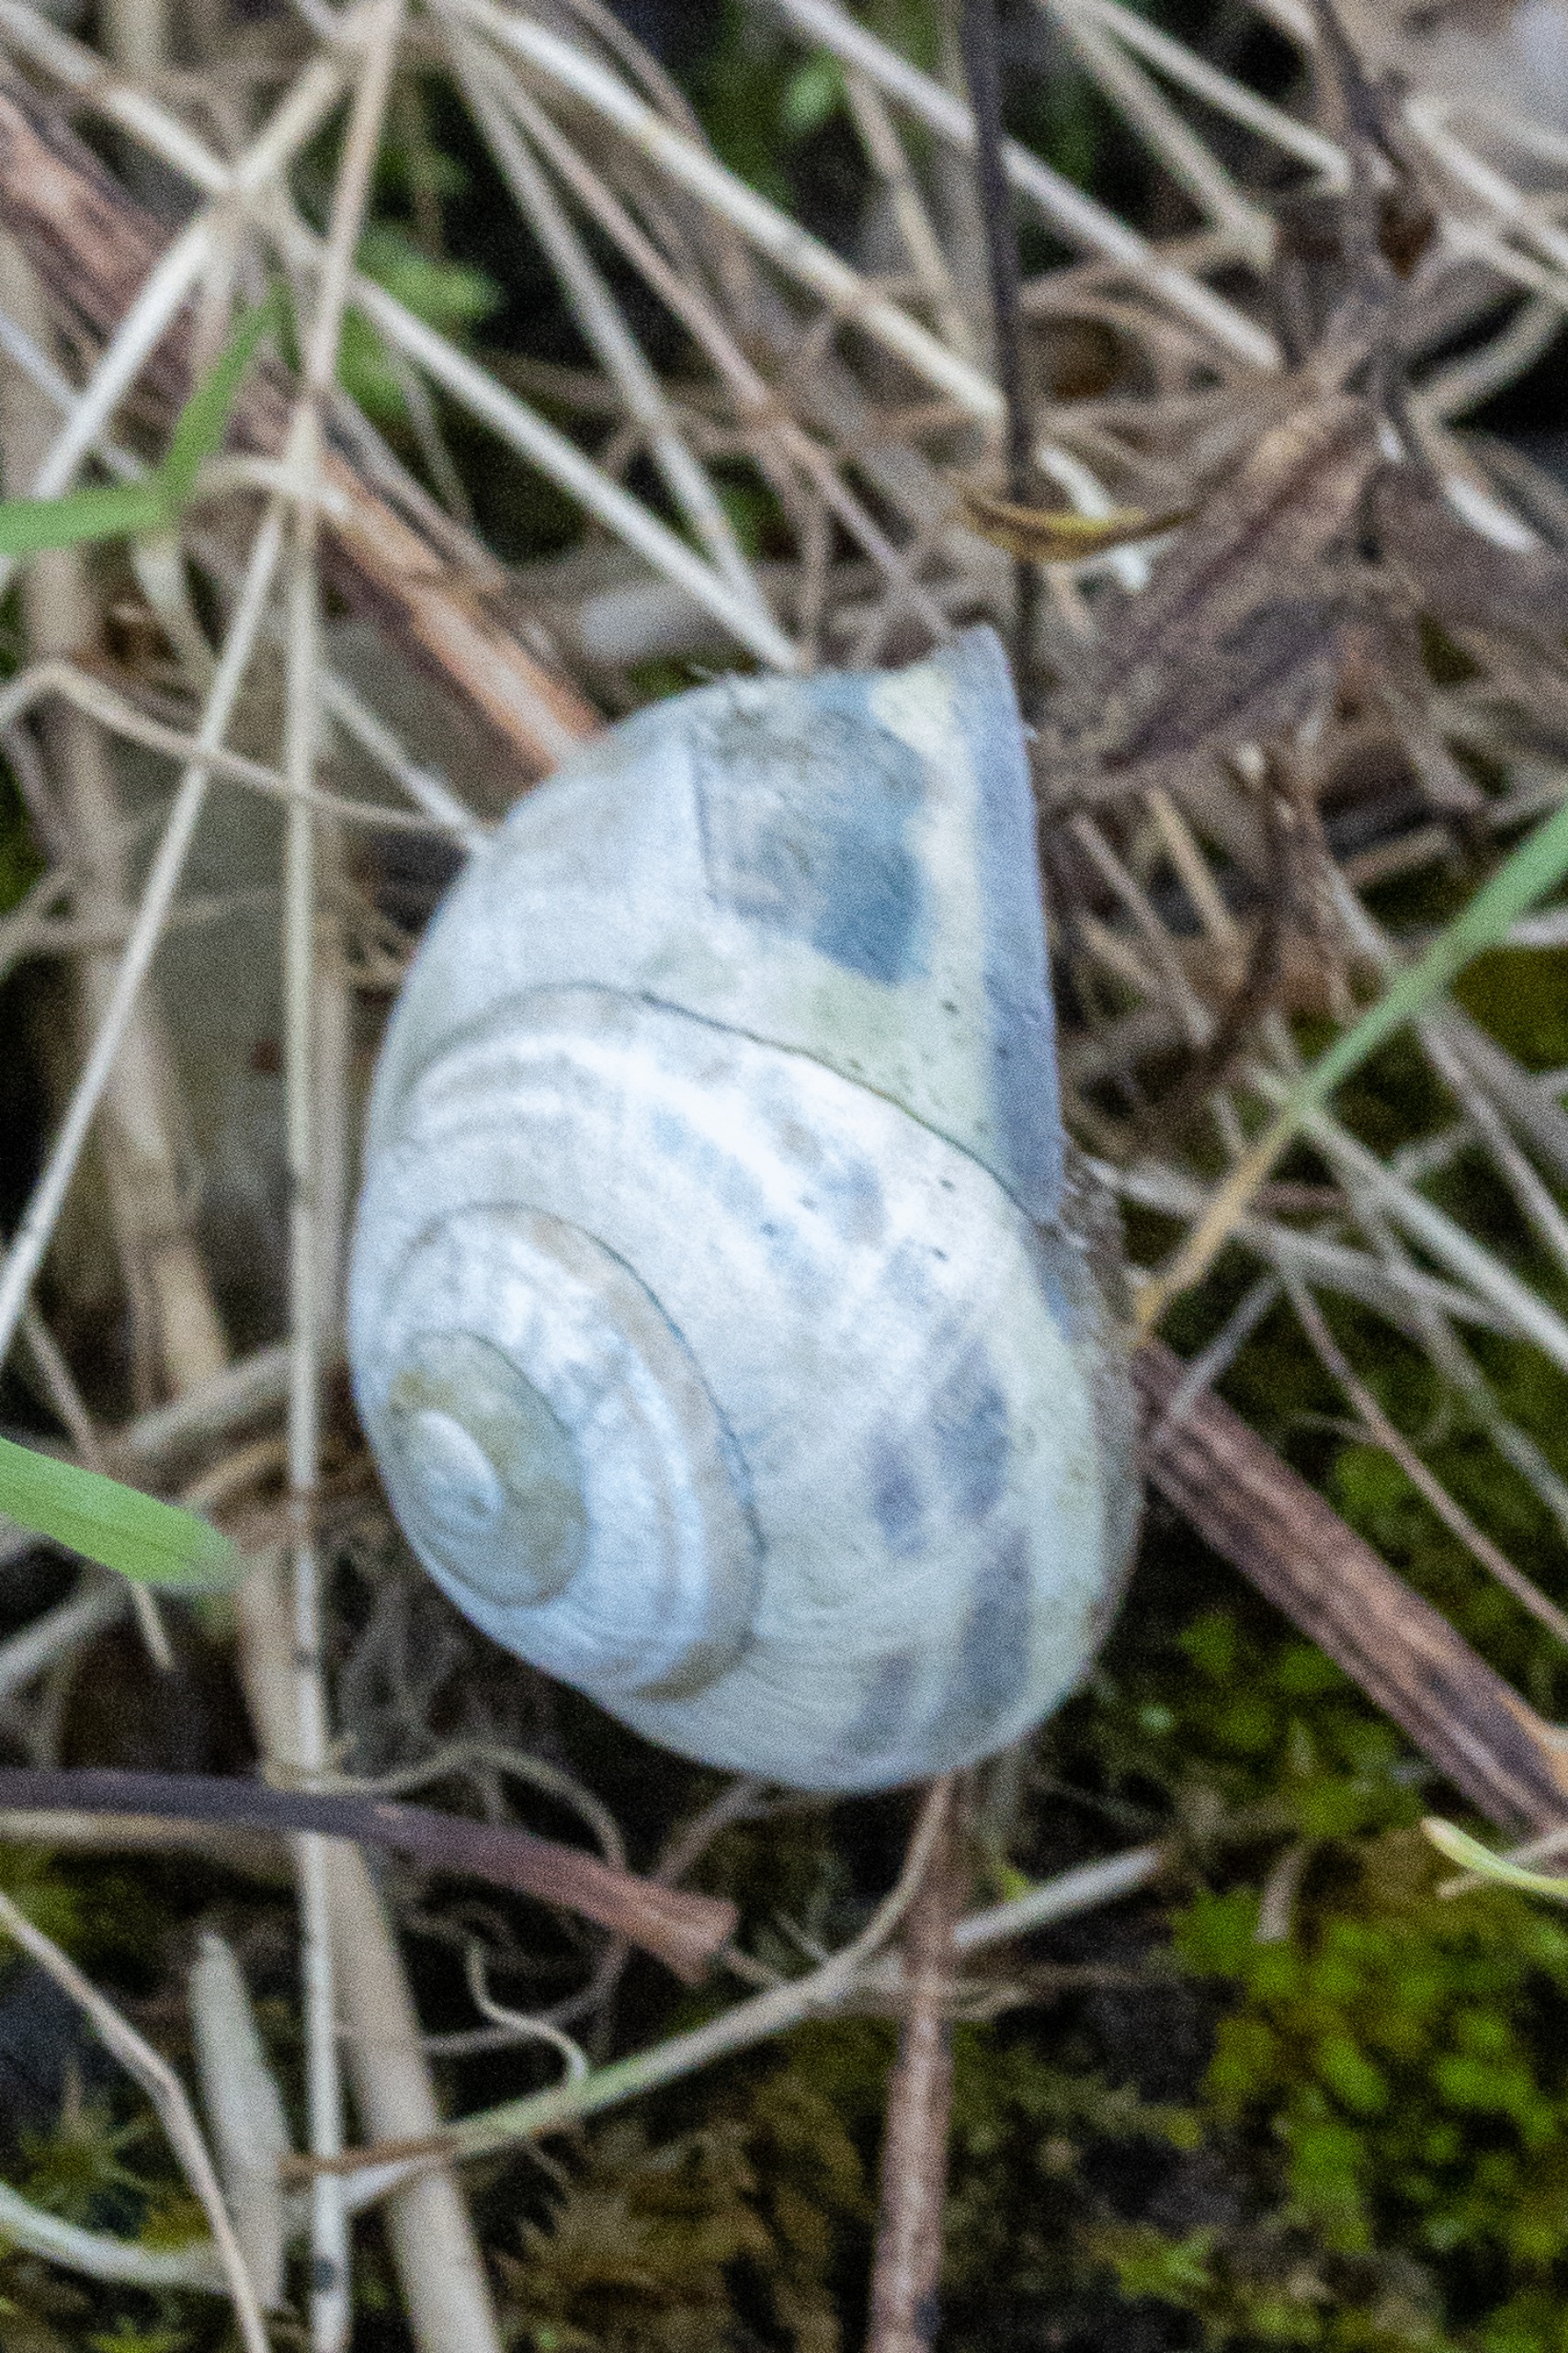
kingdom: Animalia
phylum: Mollusca
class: Gastropoda
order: Stylommatophora
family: Helicidae
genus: Cepaea
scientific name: Cepaea nemoralis
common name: Lundsnegl
